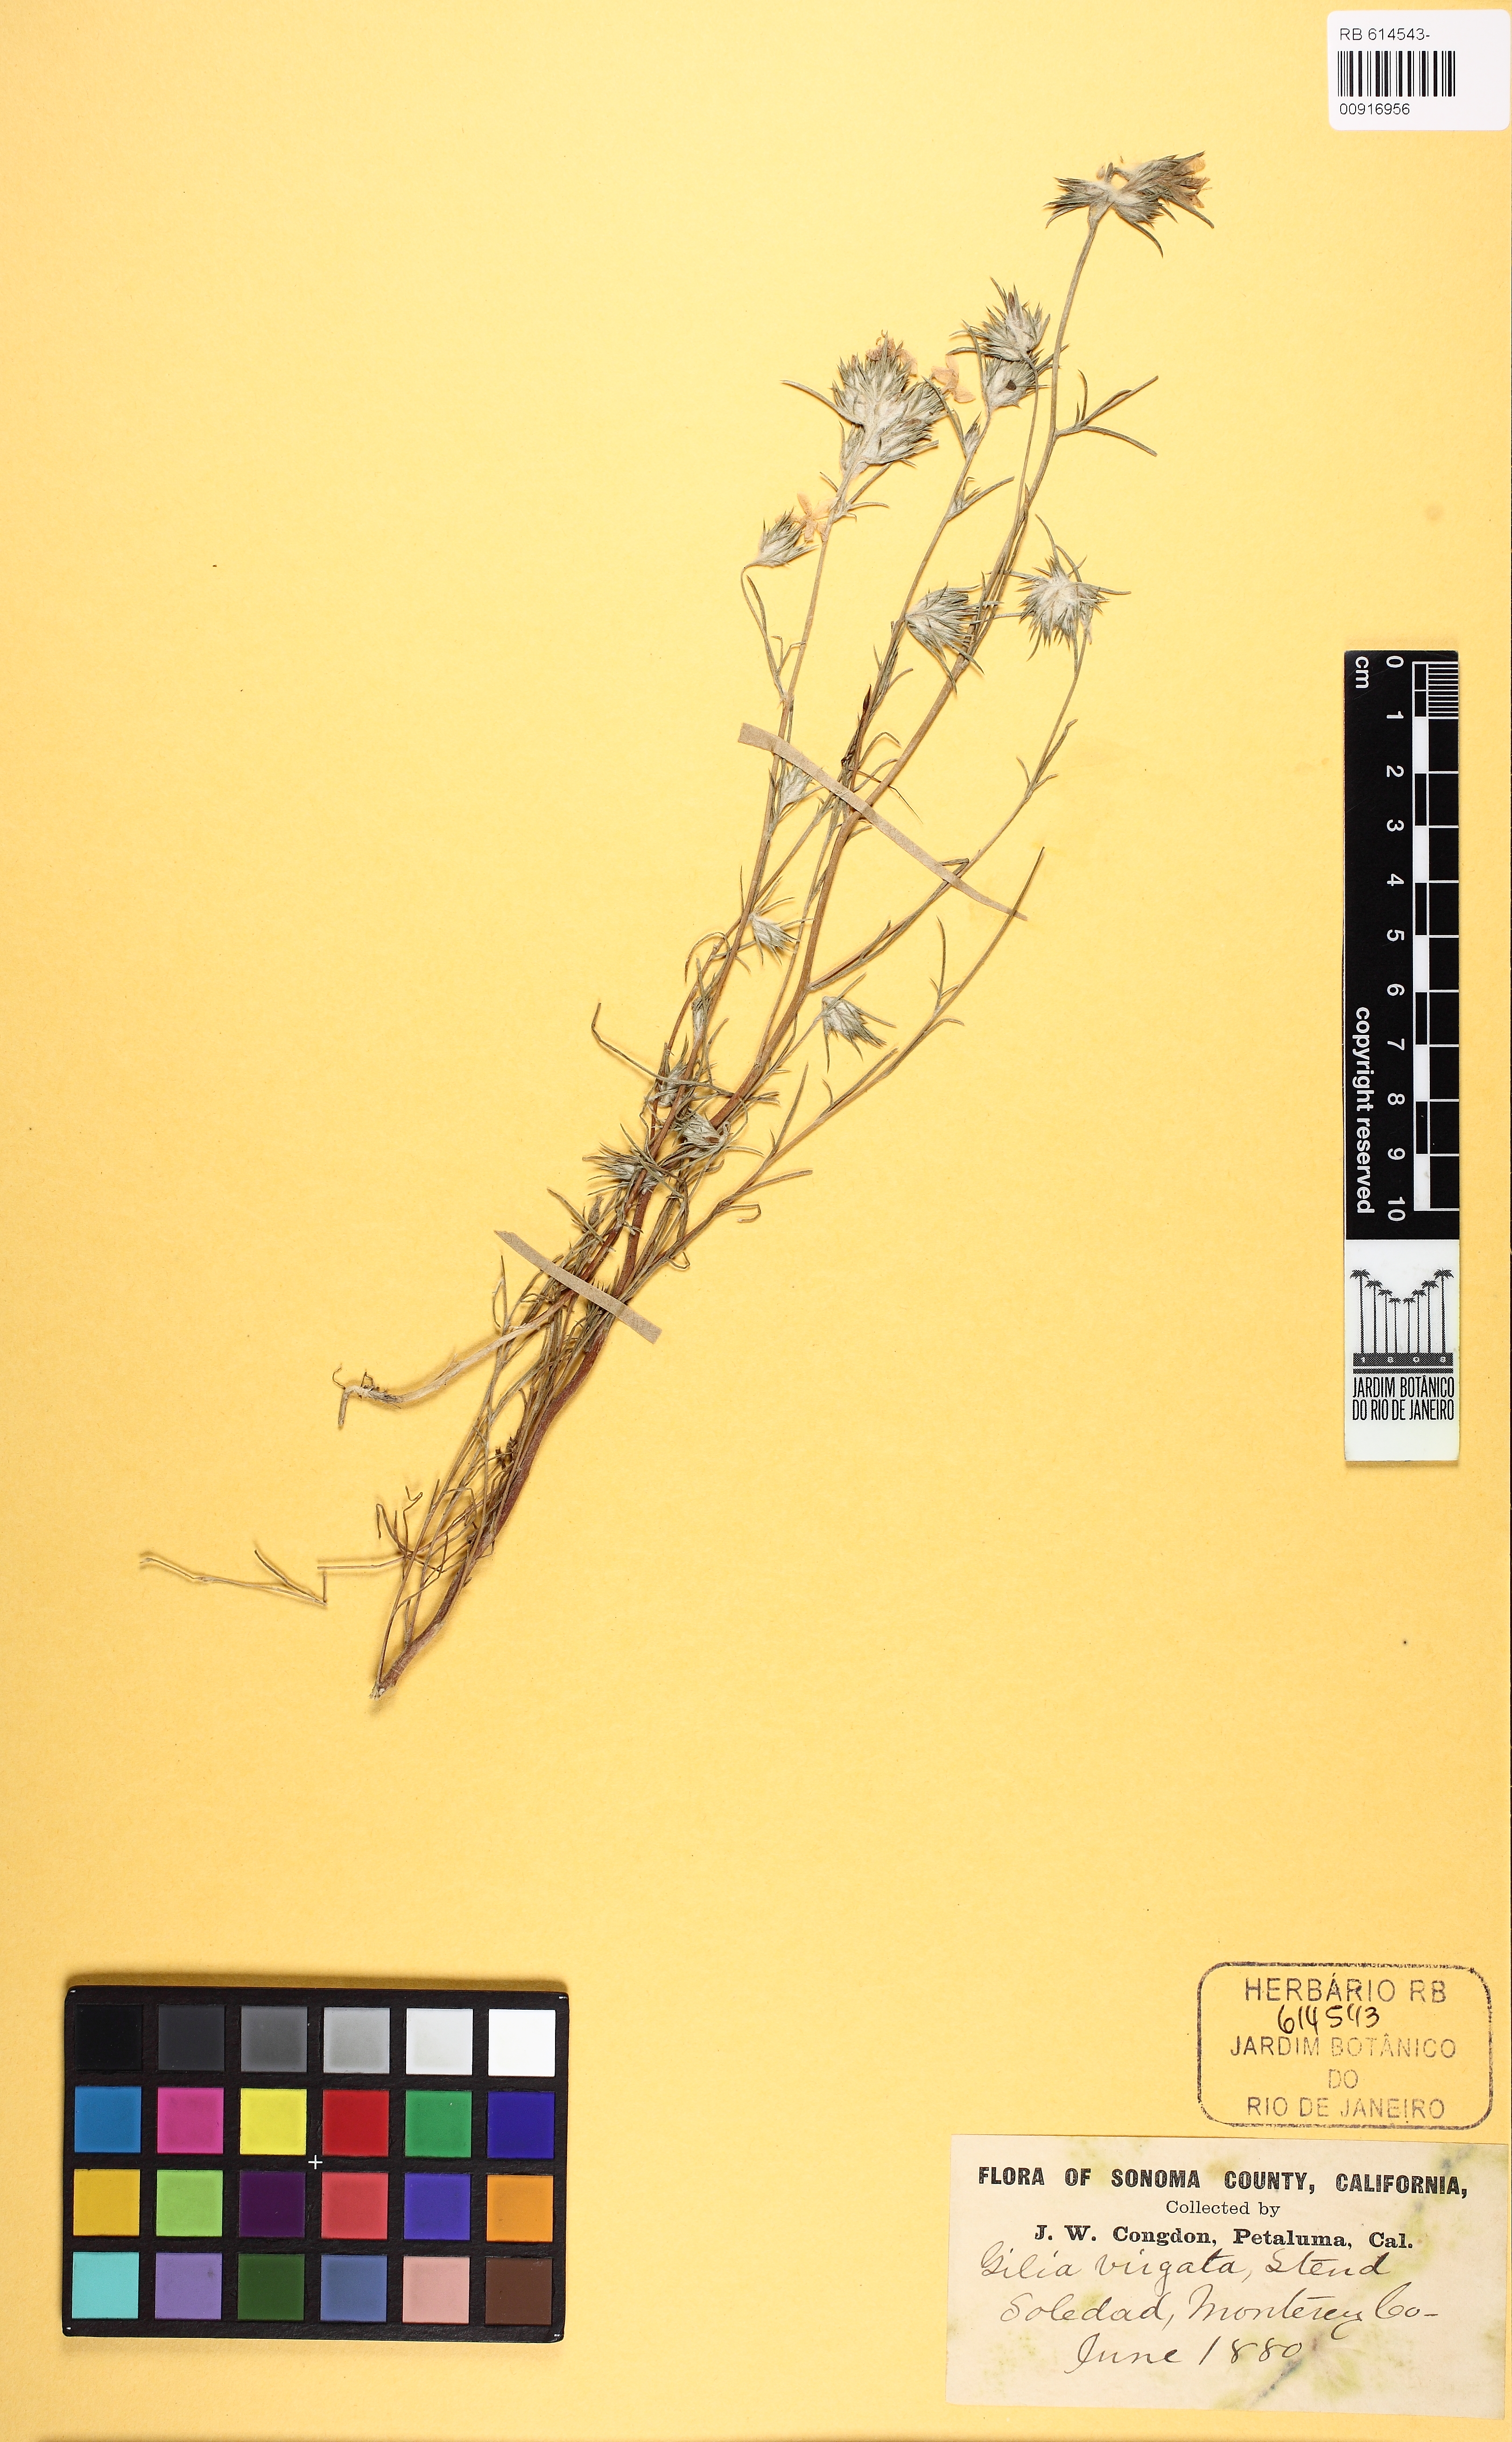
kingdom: Plantae
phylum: Tracheophyta
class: Magnoliopsida
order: Ericales
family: Polemoniaceae
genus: Eriastrum
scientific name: Eriastrum virgatum
